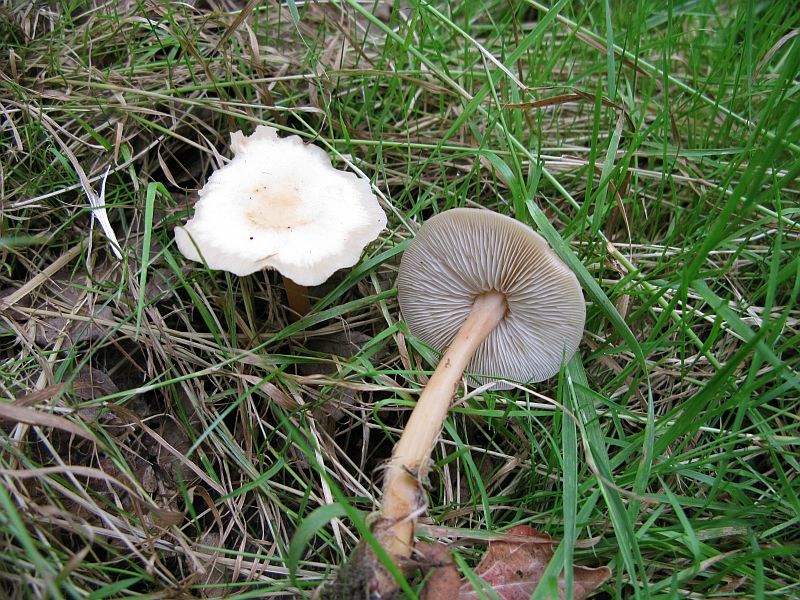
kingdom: Fungi
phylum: Basidiomycota
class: Agaricomycetes
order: Agaricales
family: Omphalotaceae
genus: Gymnopus
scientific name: Gymnopus dryophilus
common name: løv-fladhat
